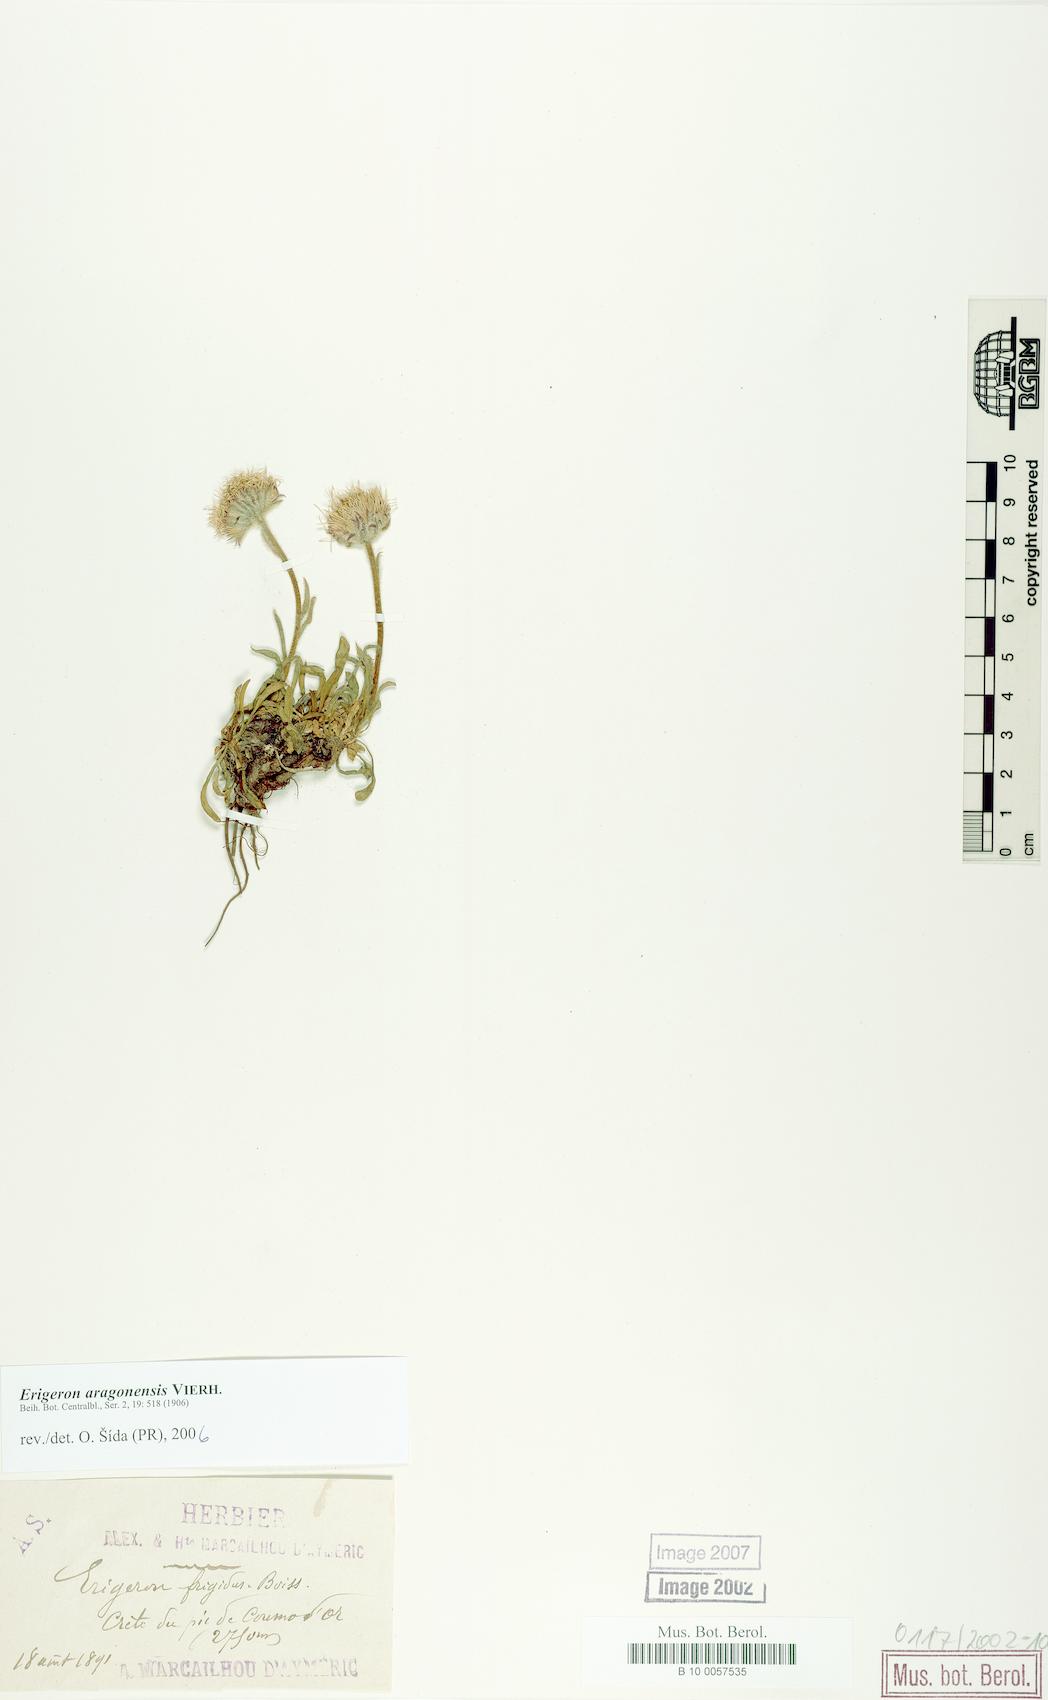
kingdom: Plantae
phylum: Tracheophyta
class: Magnoliopsida
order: Asterales
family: Asteraceae
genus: Erigeron
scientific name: Erigeron aragonensis
